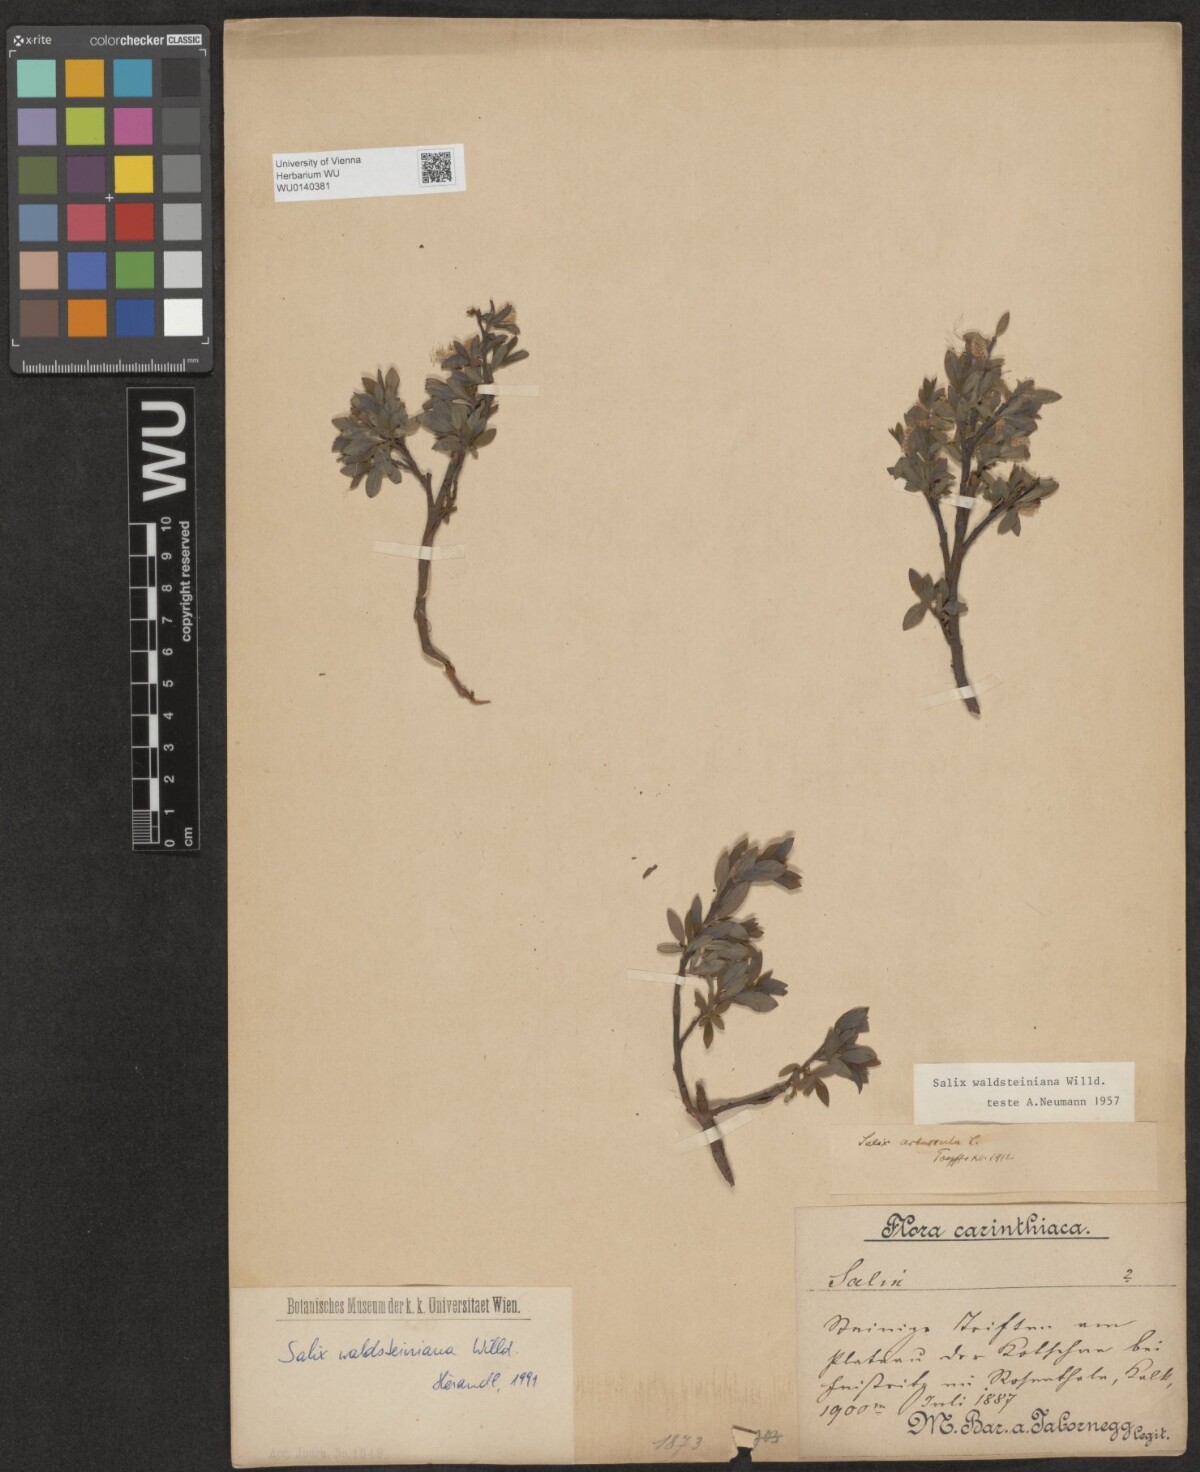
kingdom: Plantae
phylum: Tracheophyta
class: Magnoliopsida
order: Malpighiales
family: Salicaceae
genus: Salix
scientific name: Salix waldsteiniana
